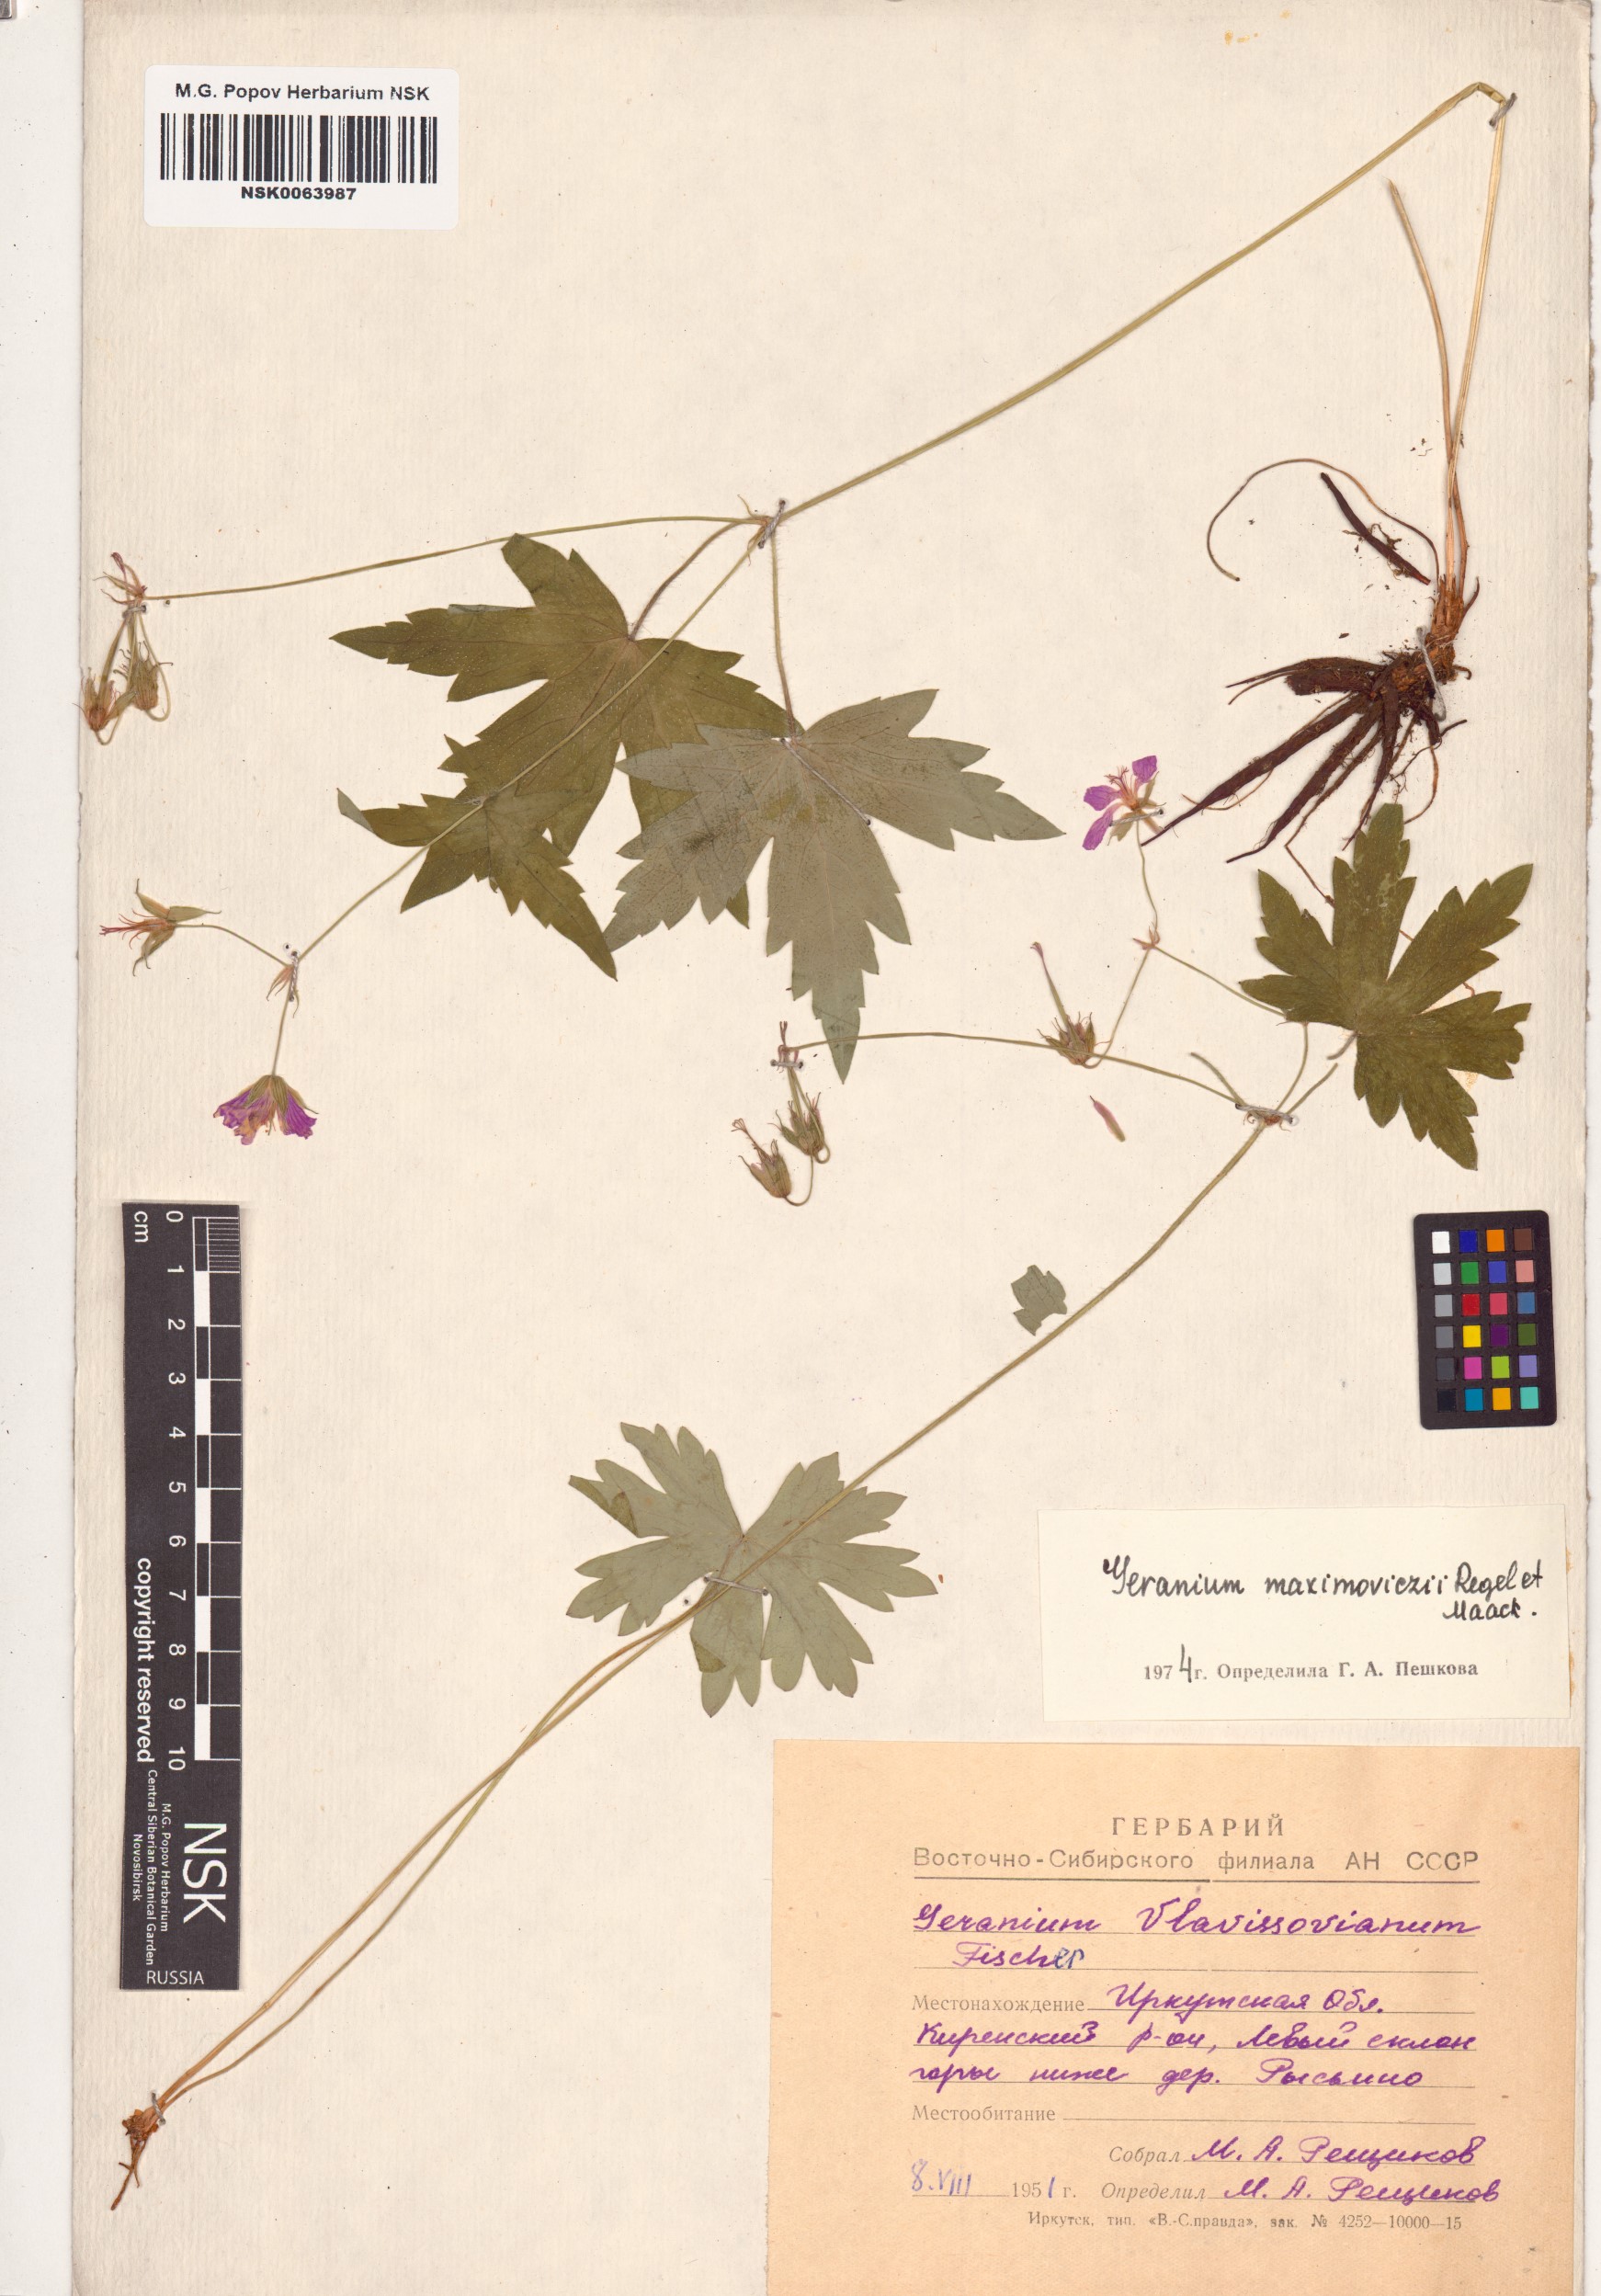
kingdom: Plantae
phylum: Tracheophyta
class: Magnoliopsida
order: Geraniales
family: Geraniaceae
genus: Geranium
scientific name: Geranium maximowiczii
